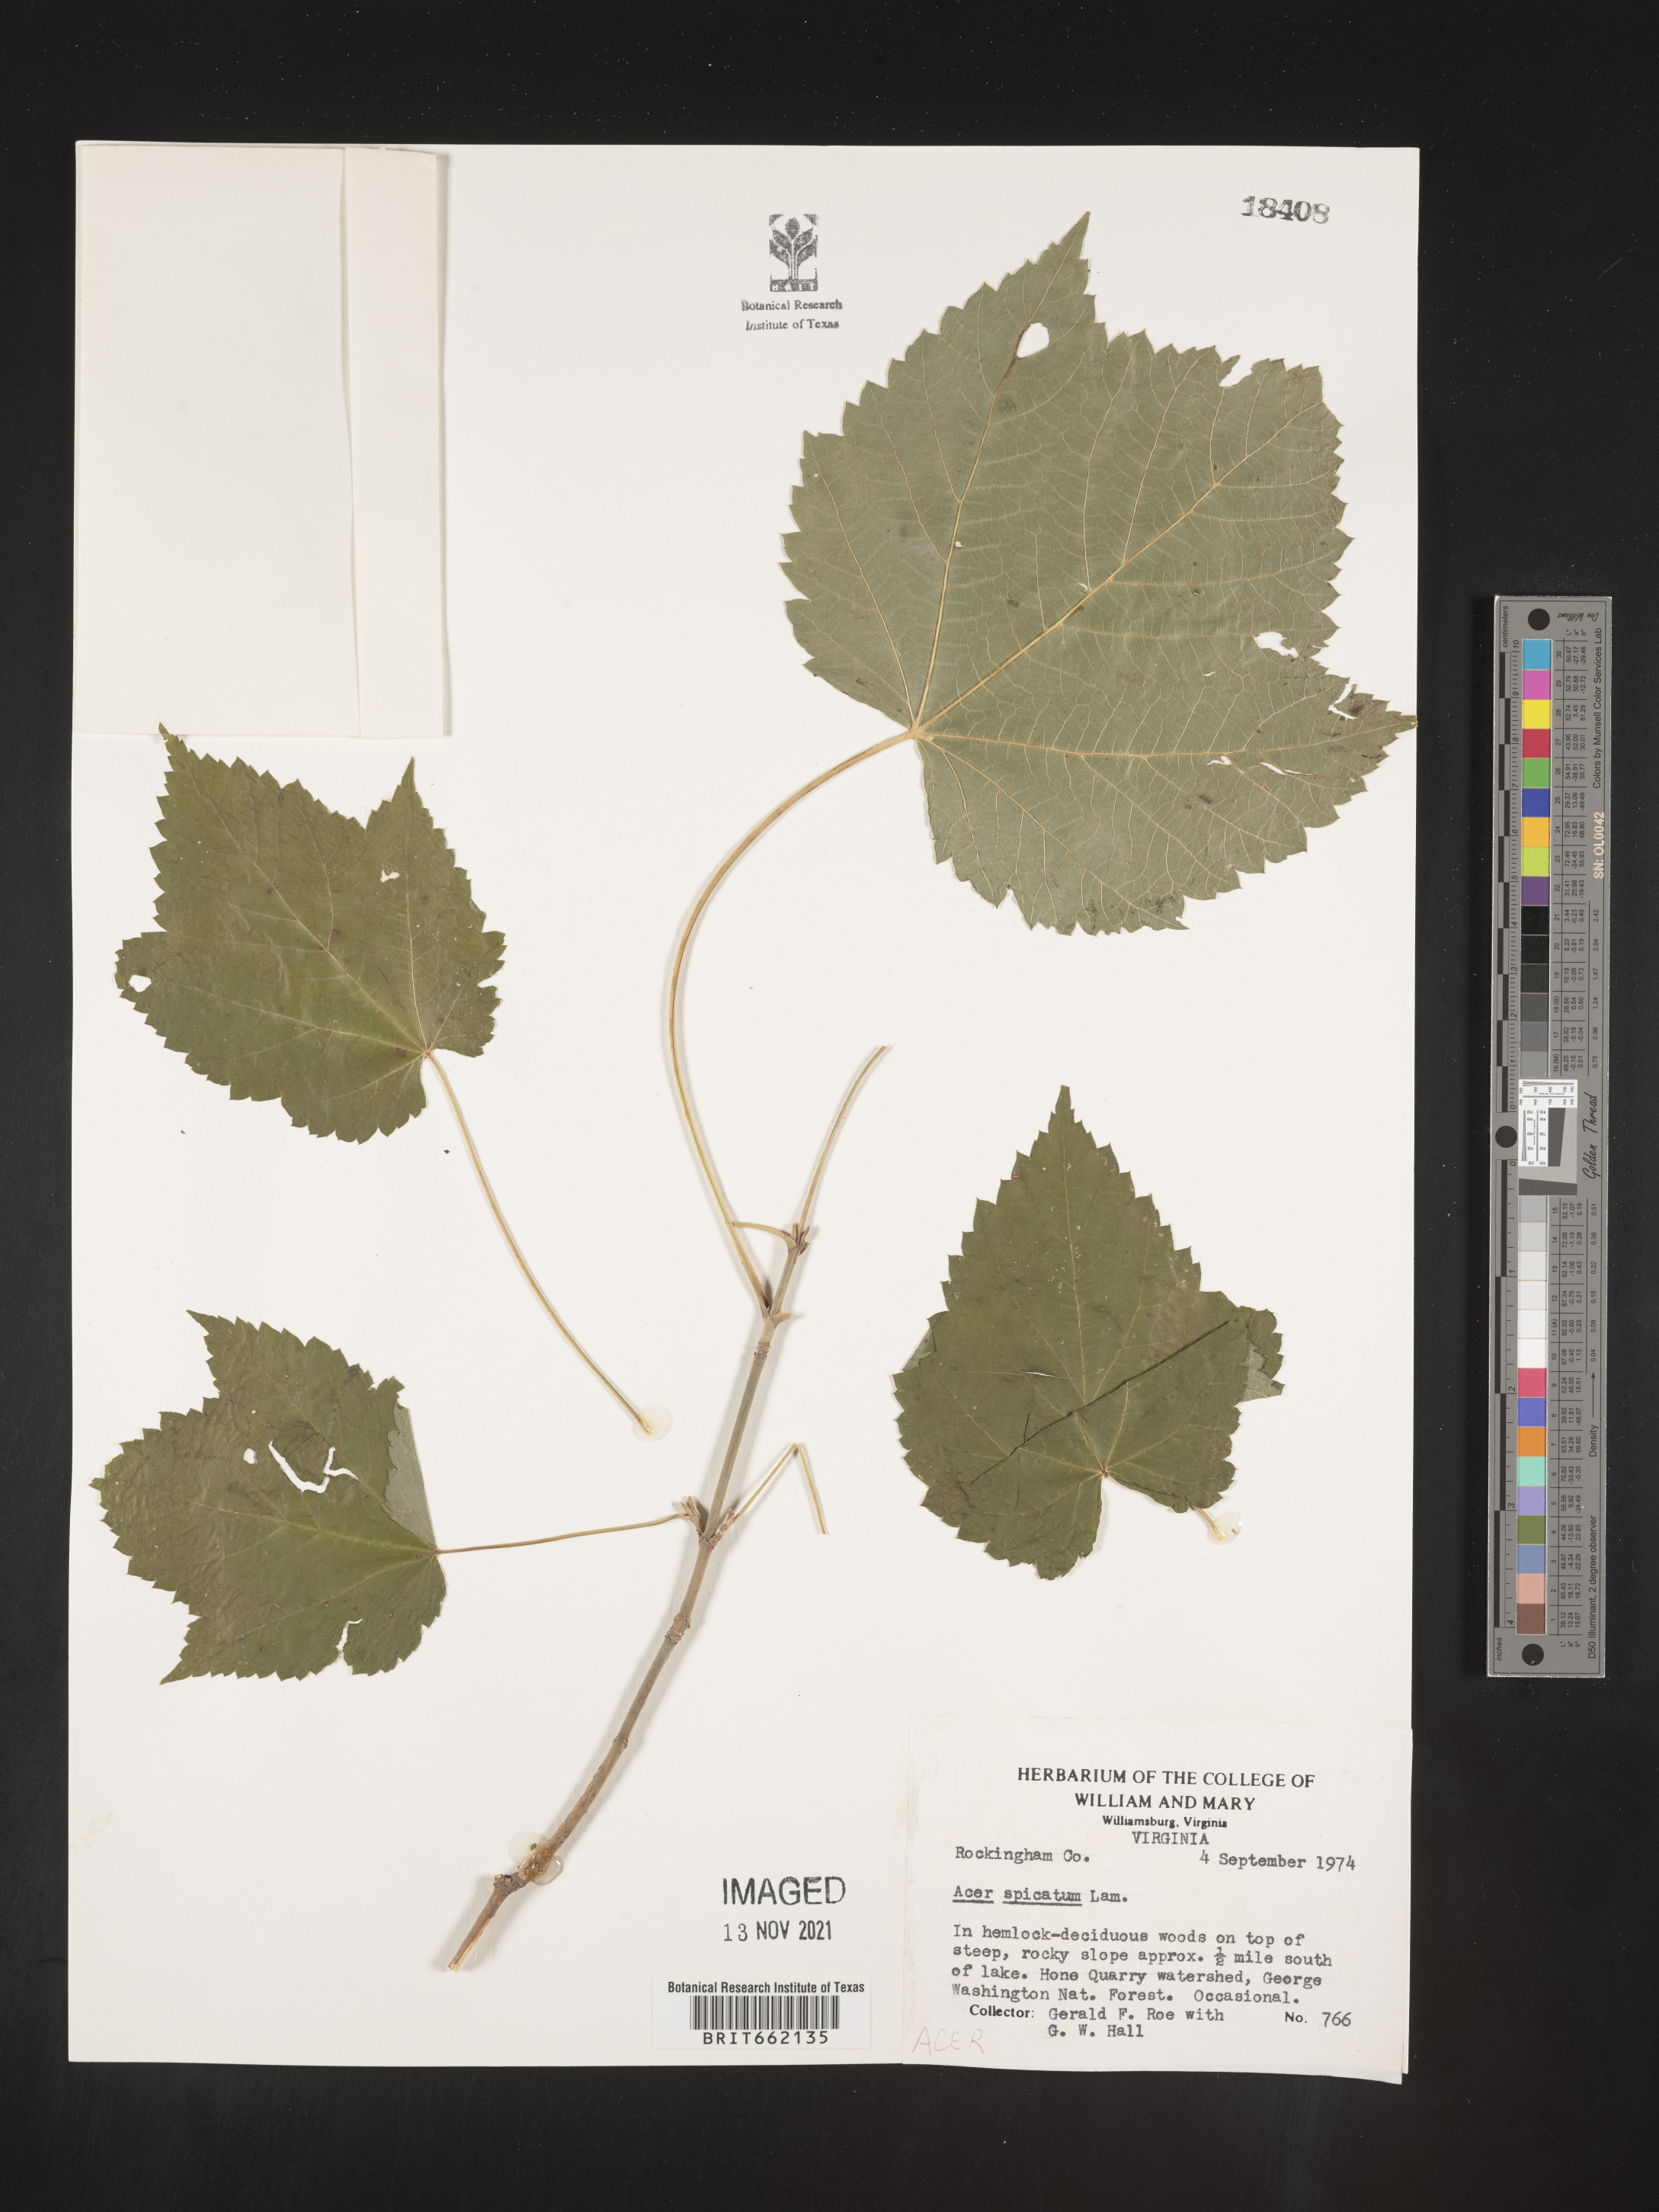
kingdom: Plantae
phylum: Tracheophyta
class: Magnoliopsida
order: Sapindales
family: Sapindaceae
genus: Acer
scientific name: Acer spicatum
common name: Mountain maple
